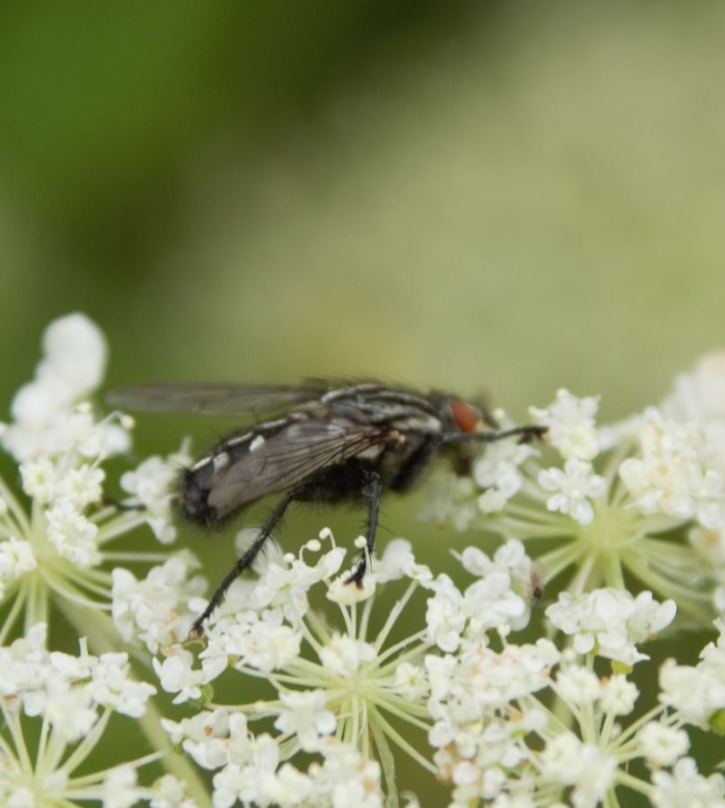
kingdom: Animalia
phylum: Arthropoda
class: Insecta
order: Diptera
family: Sarcophagidae
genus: Sarcophaga
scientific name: Sarcophaga
